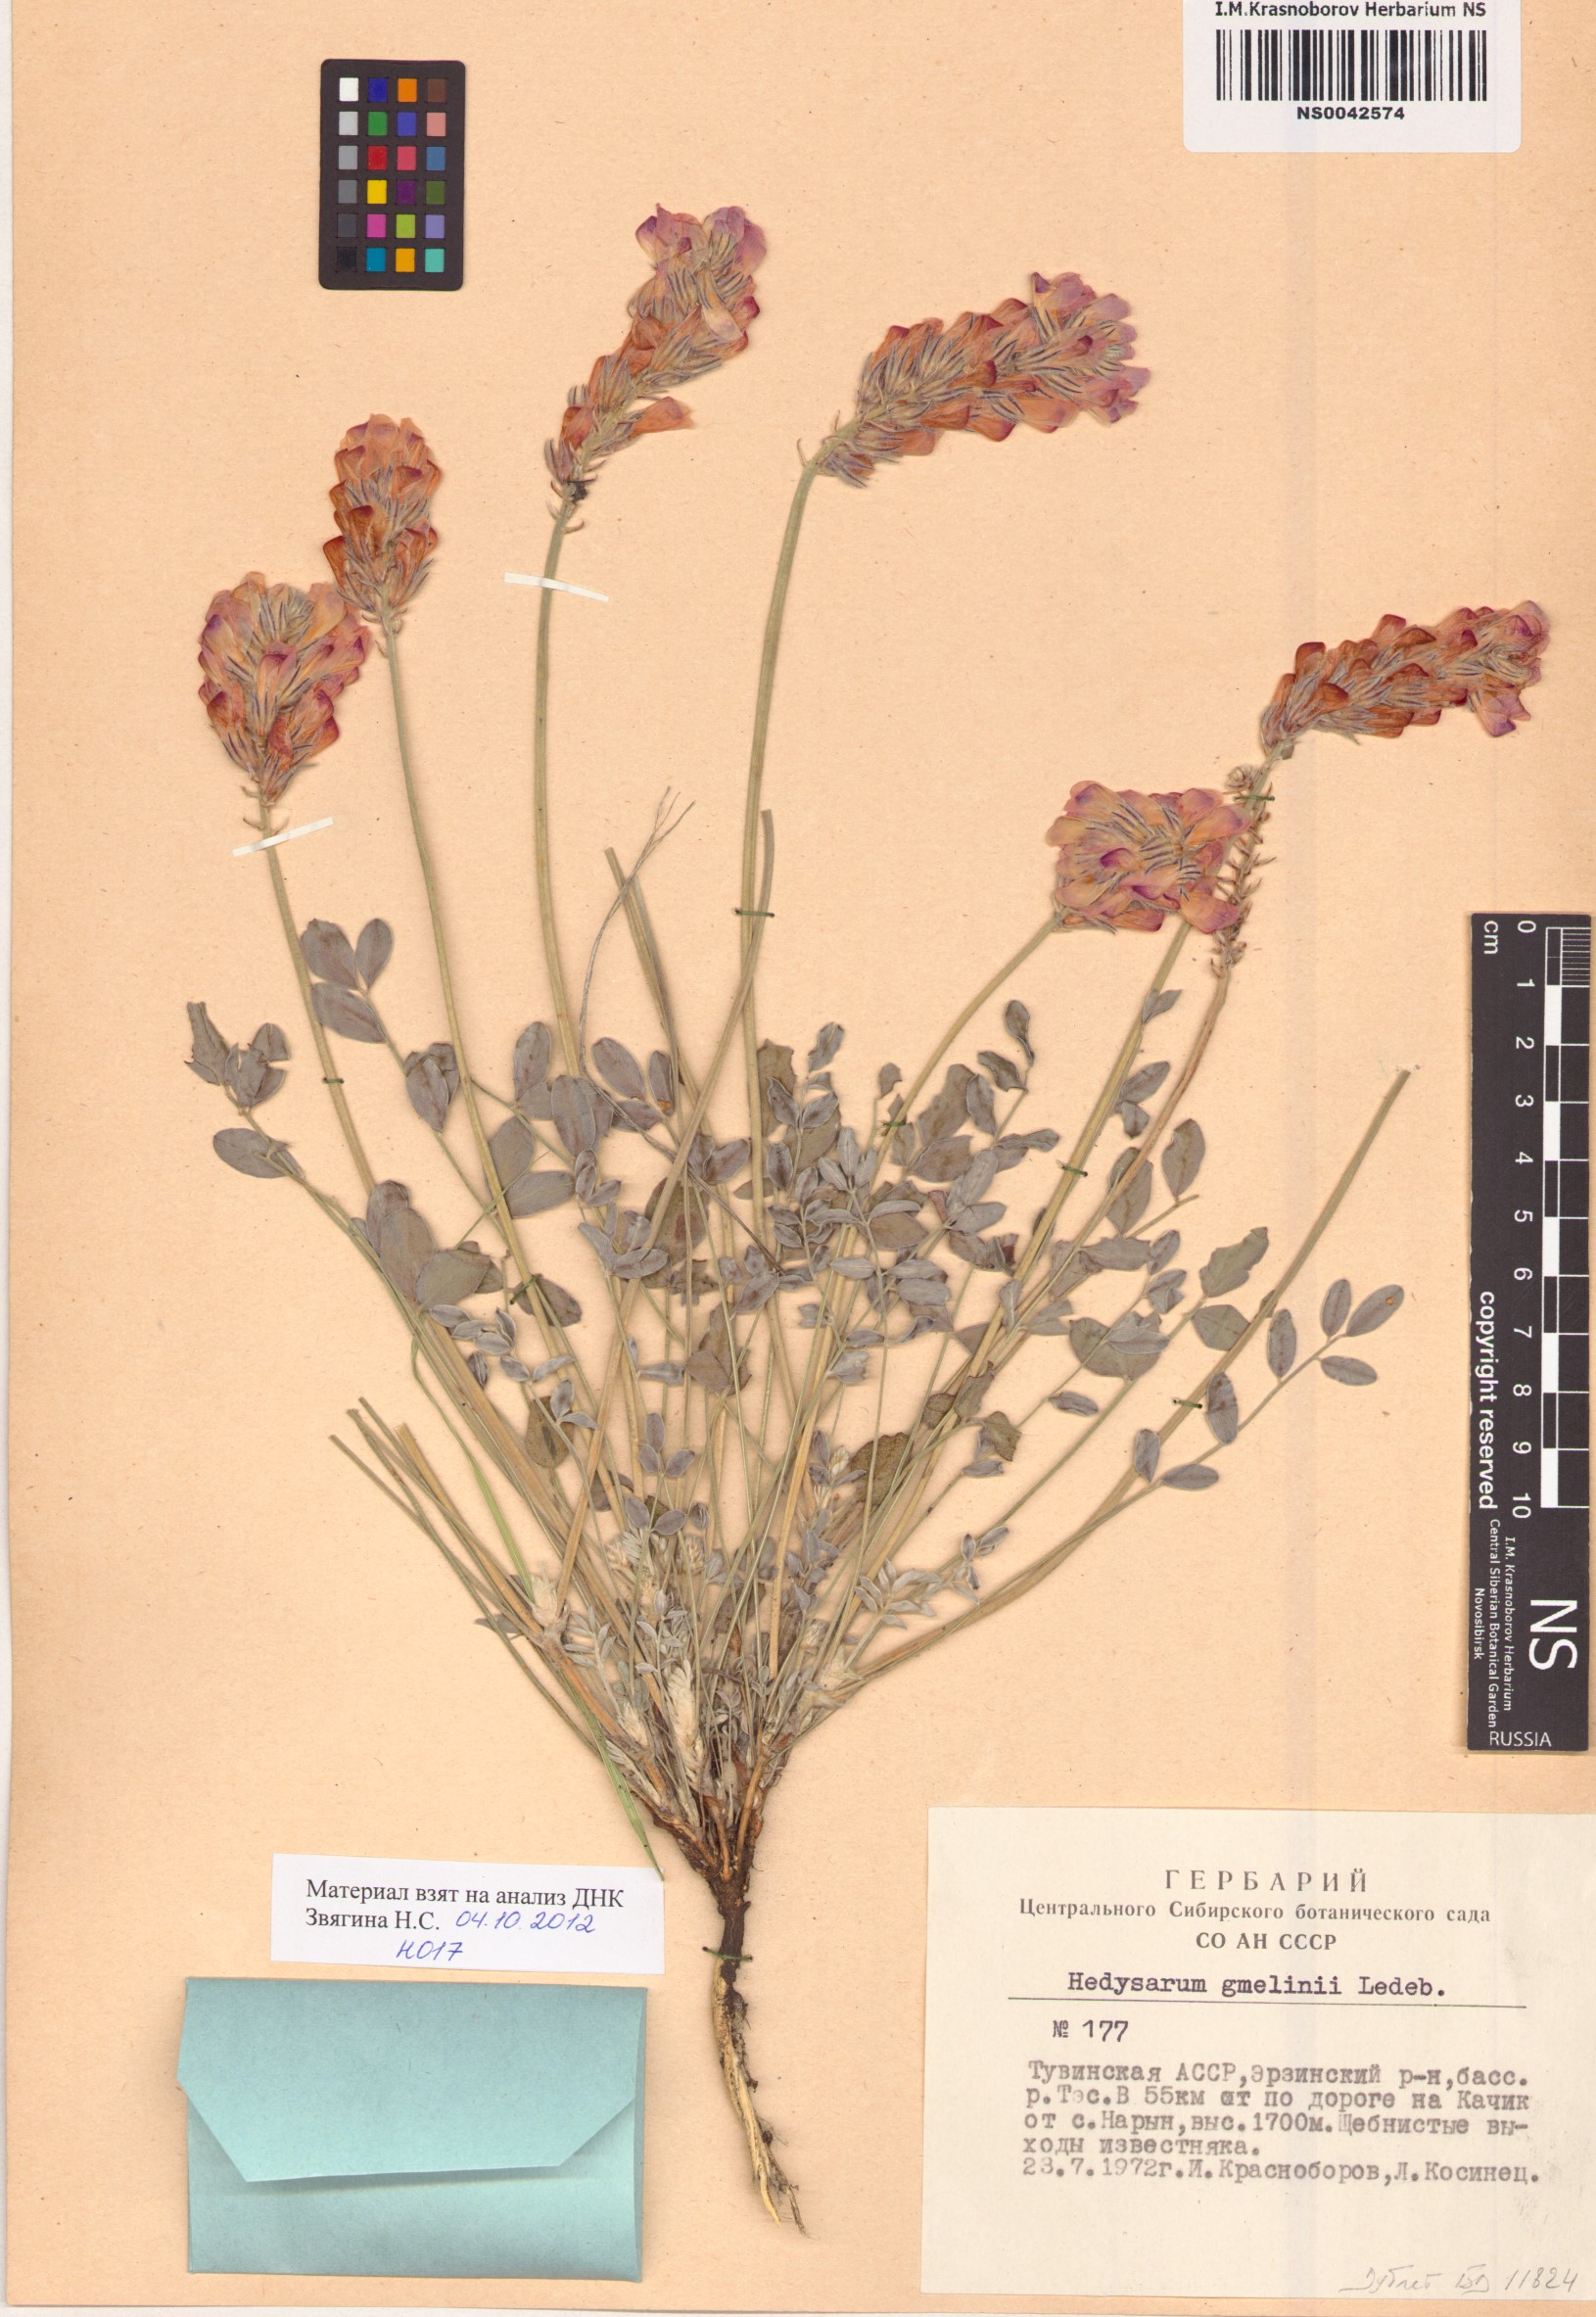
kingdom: Plantae
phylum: Tracheophyta
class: Magnoliopsida
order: Fabales
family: Fabaceae
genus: Hedysarum
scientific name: Hedysarum gmelinii
